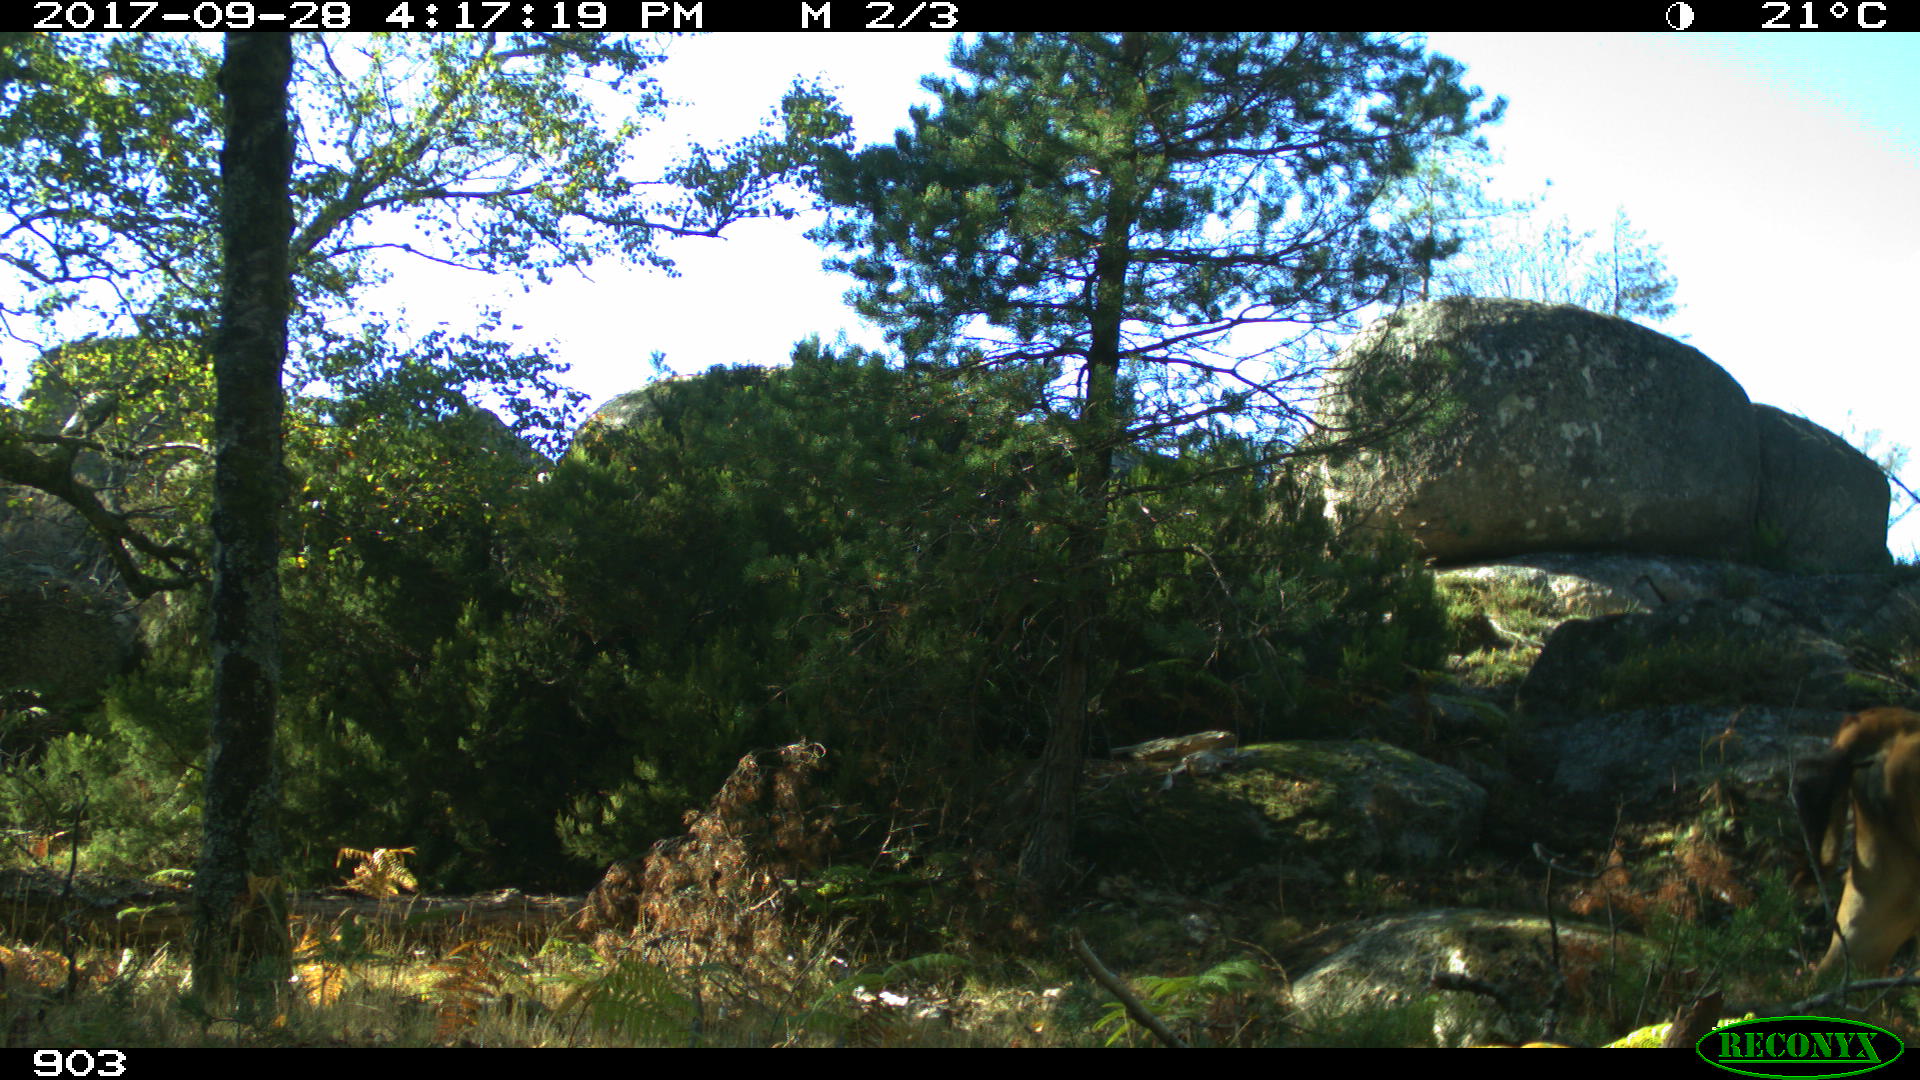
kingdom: Animalia
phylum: Chordata
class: Mammalia
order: Artiodactyla
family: Bovidae
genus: Bos
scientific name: Bos taurus
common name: Domesticated cattle
